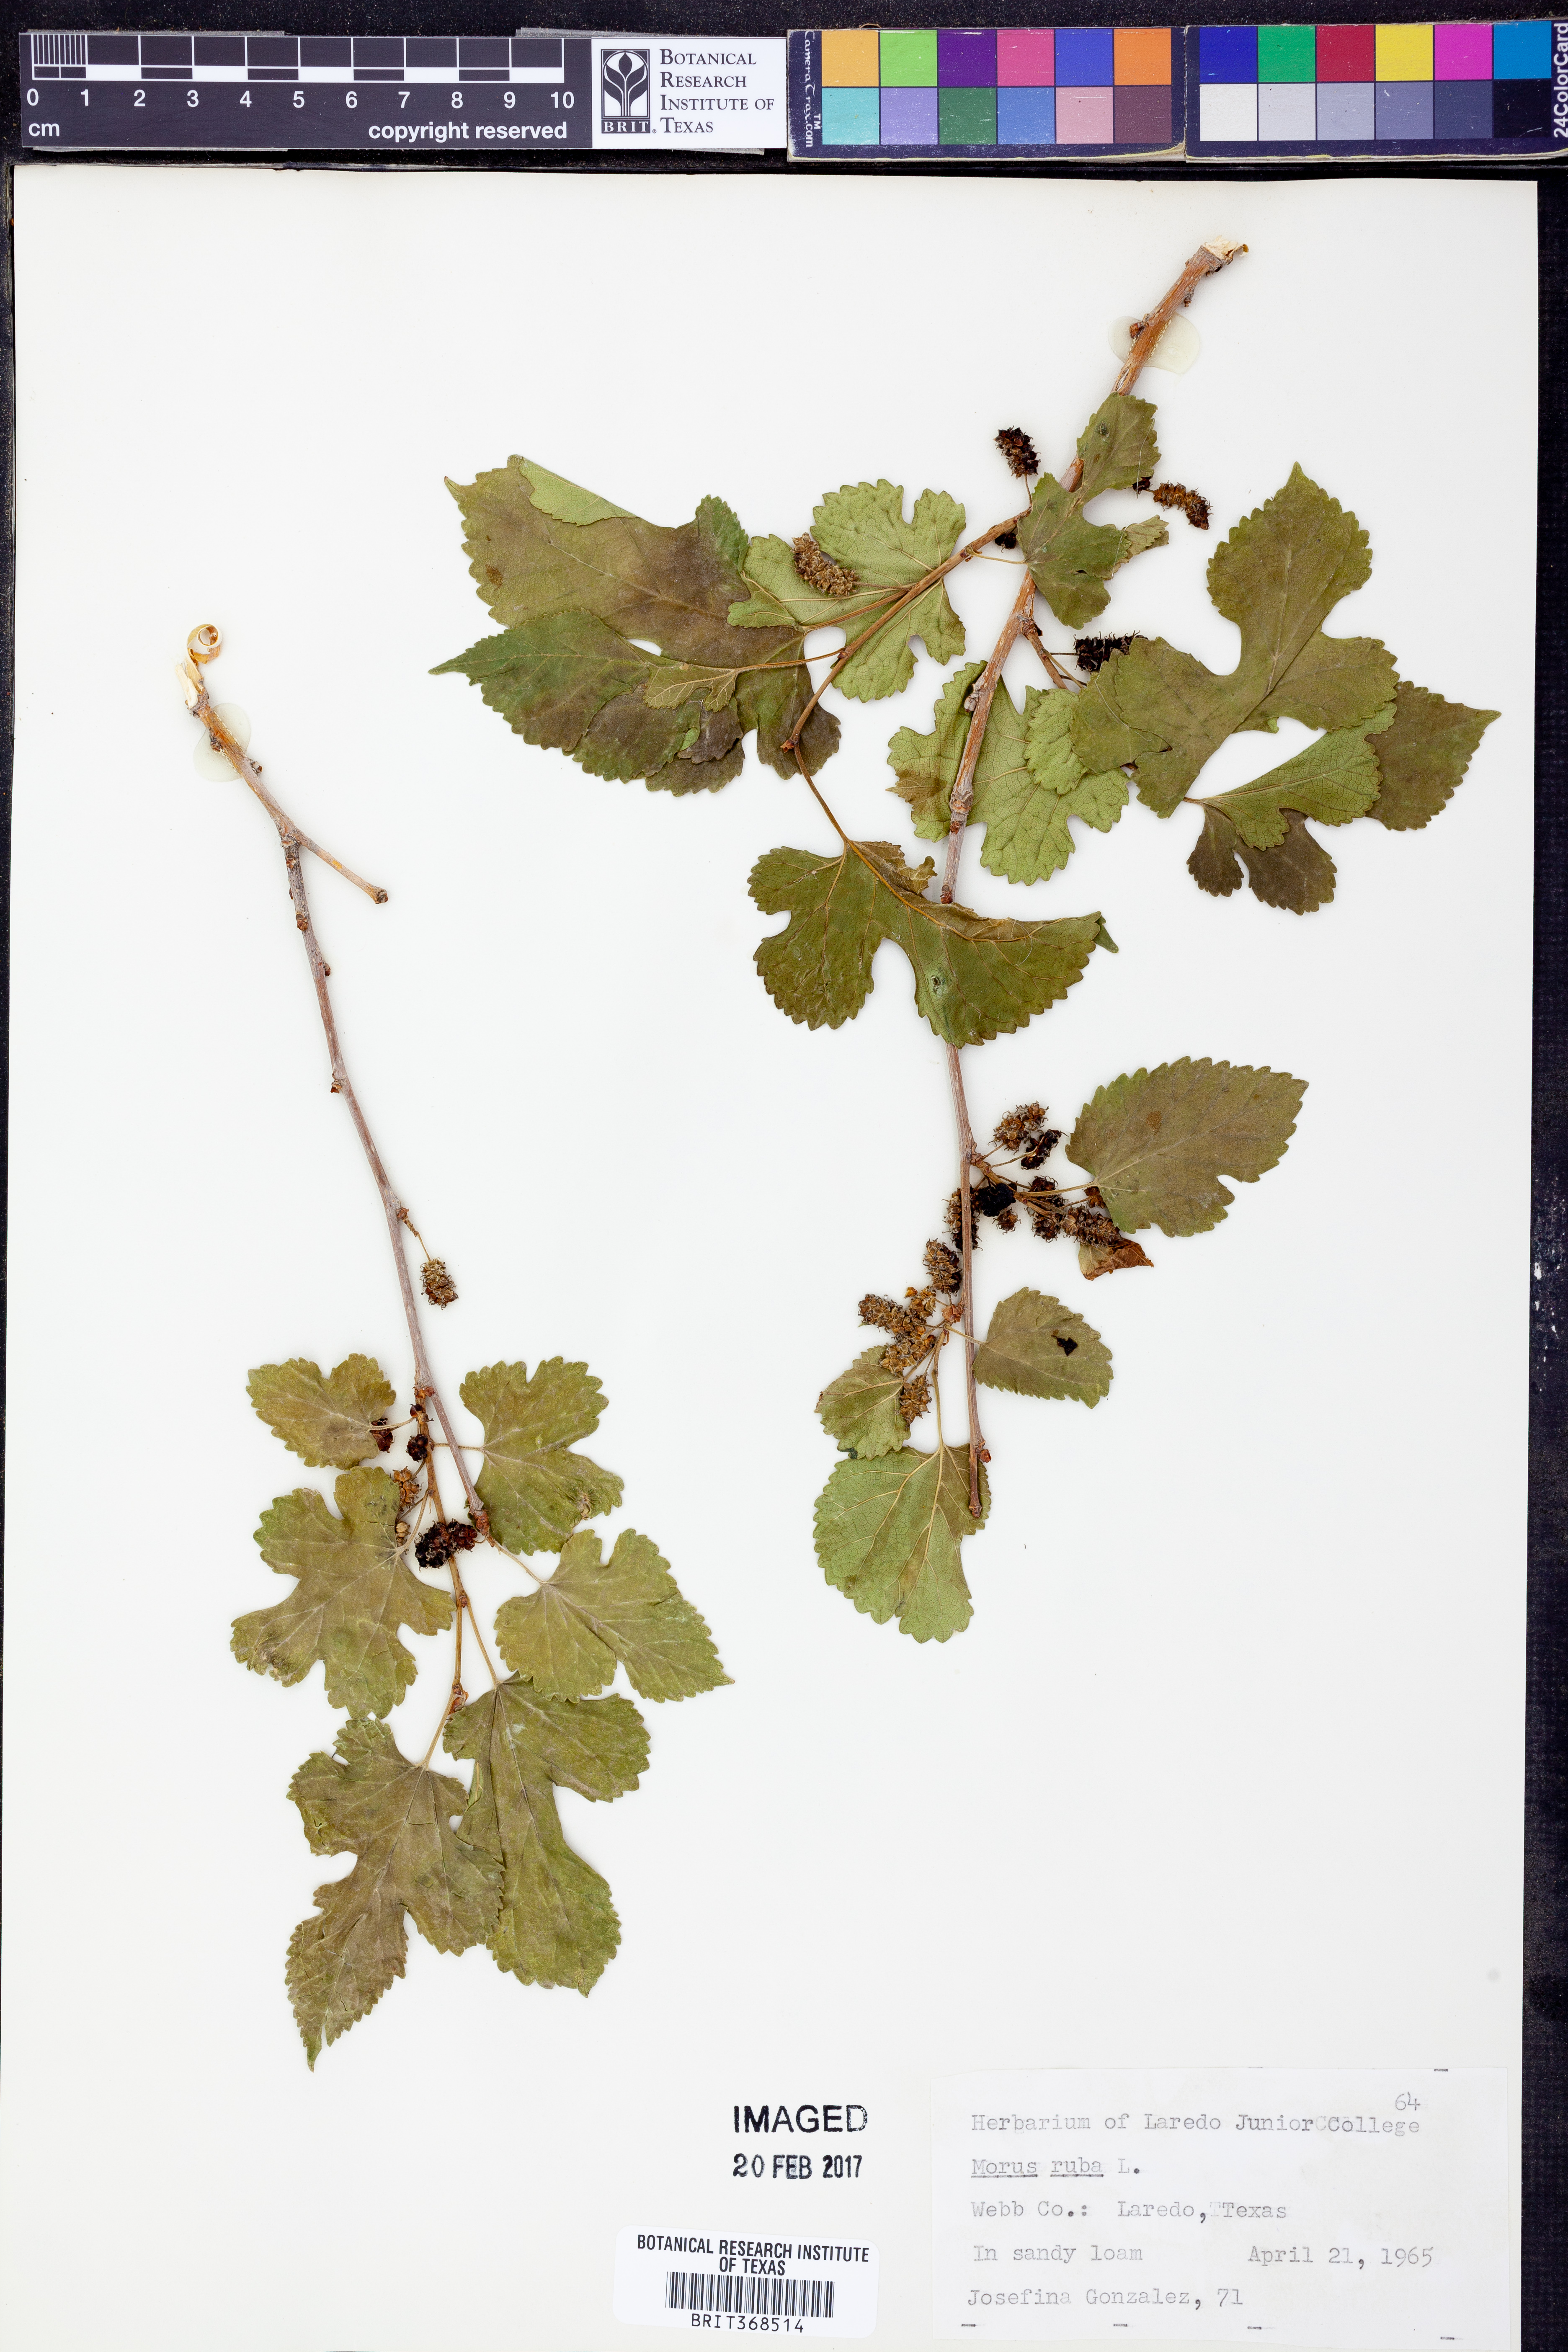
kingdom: Plantae
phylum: Tracheophyta
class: Magnoliopsida
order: Rosales
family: Moraceae
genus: Morus
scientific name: Morus rubra
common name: Red mulberry
